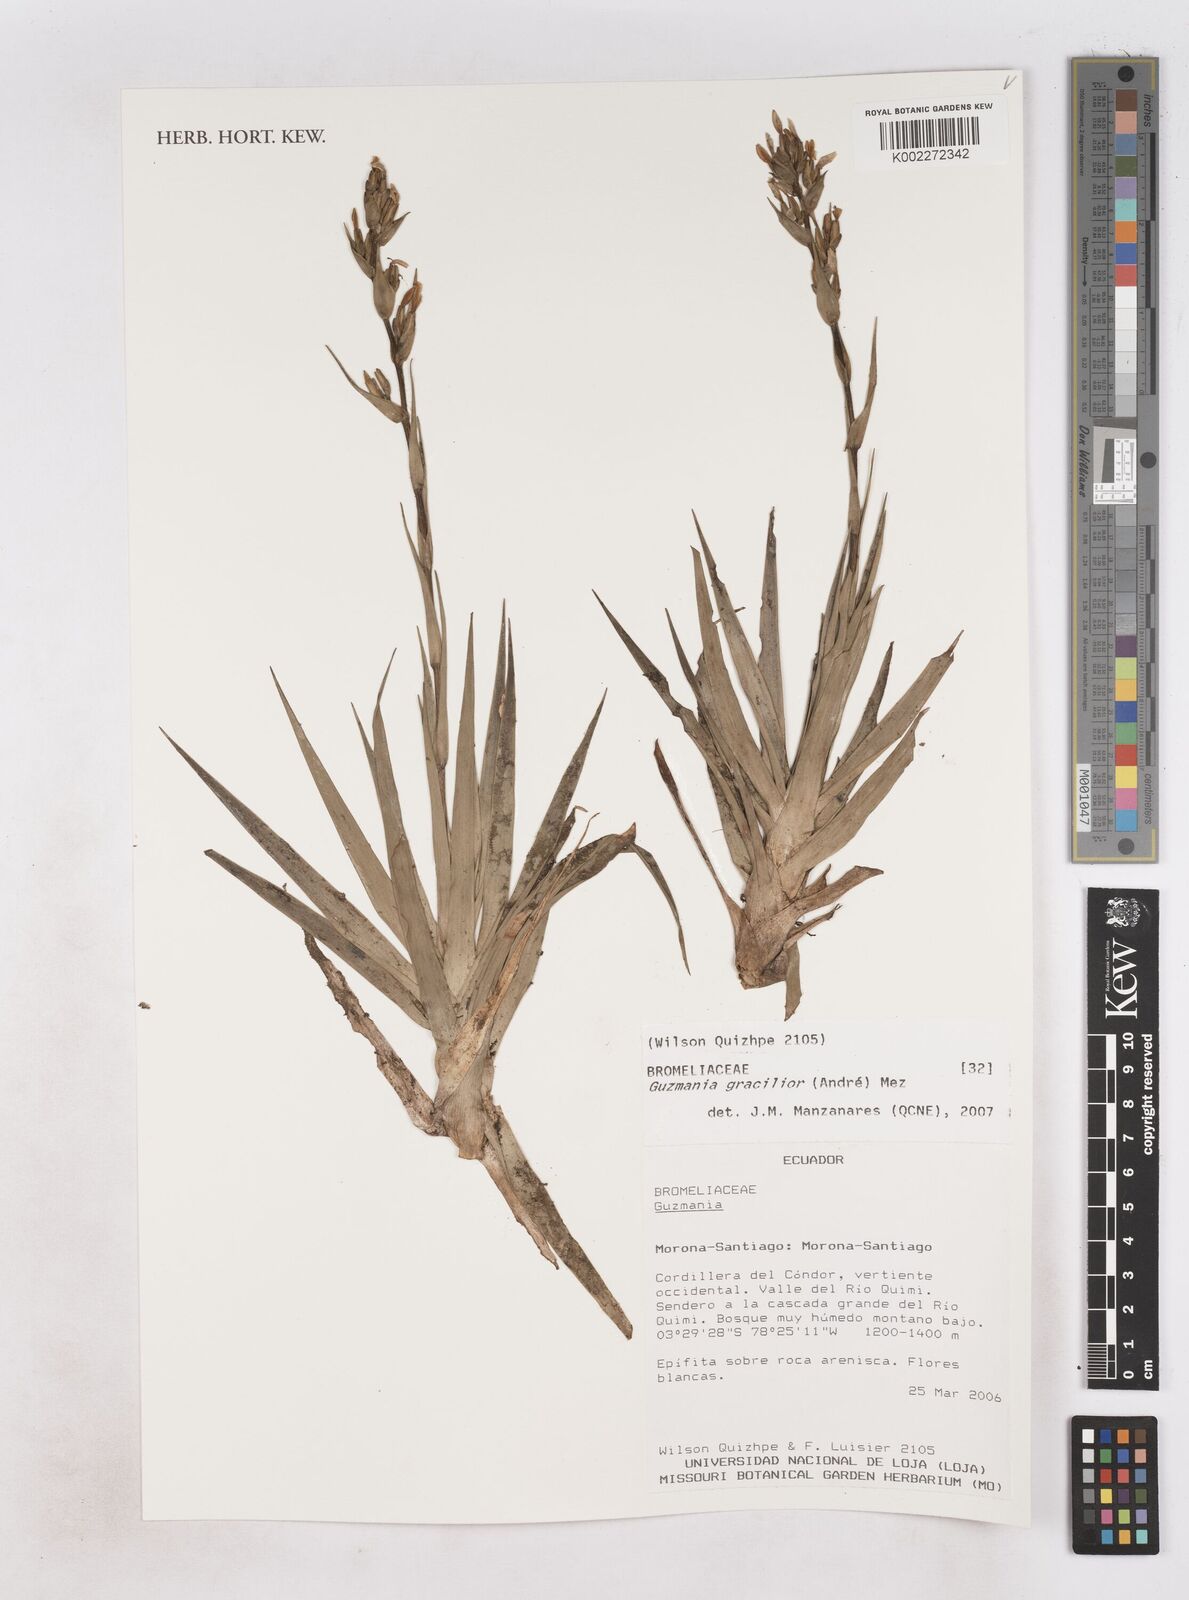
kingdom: Plantae
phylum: Tracheophyta
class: Liliopsida
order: Poales
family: Bromeliaceae
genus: Guzmania
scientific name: Guzmania gracilior
